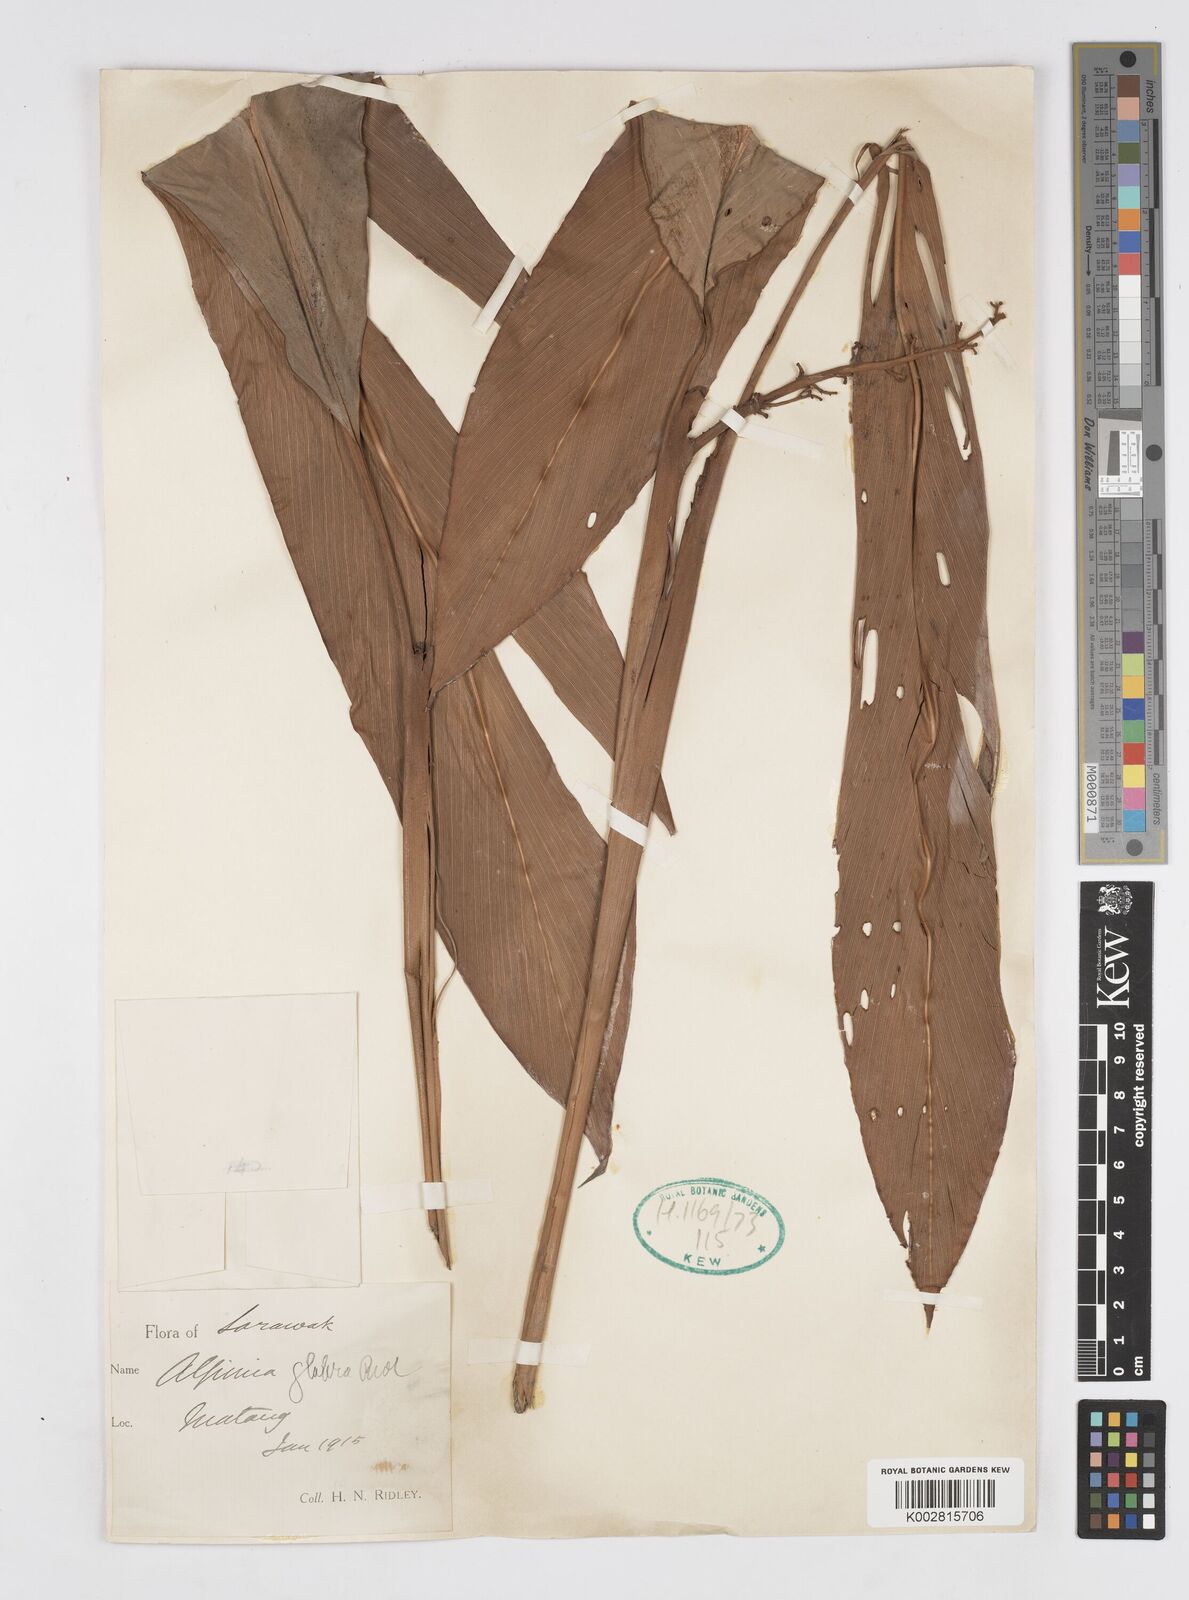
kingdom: Plantae
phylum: Tracheophyta
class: Liliopsida
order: Zingiberales
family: Zingiberaceae
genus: Alpinia
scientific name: Alpinia glabra
